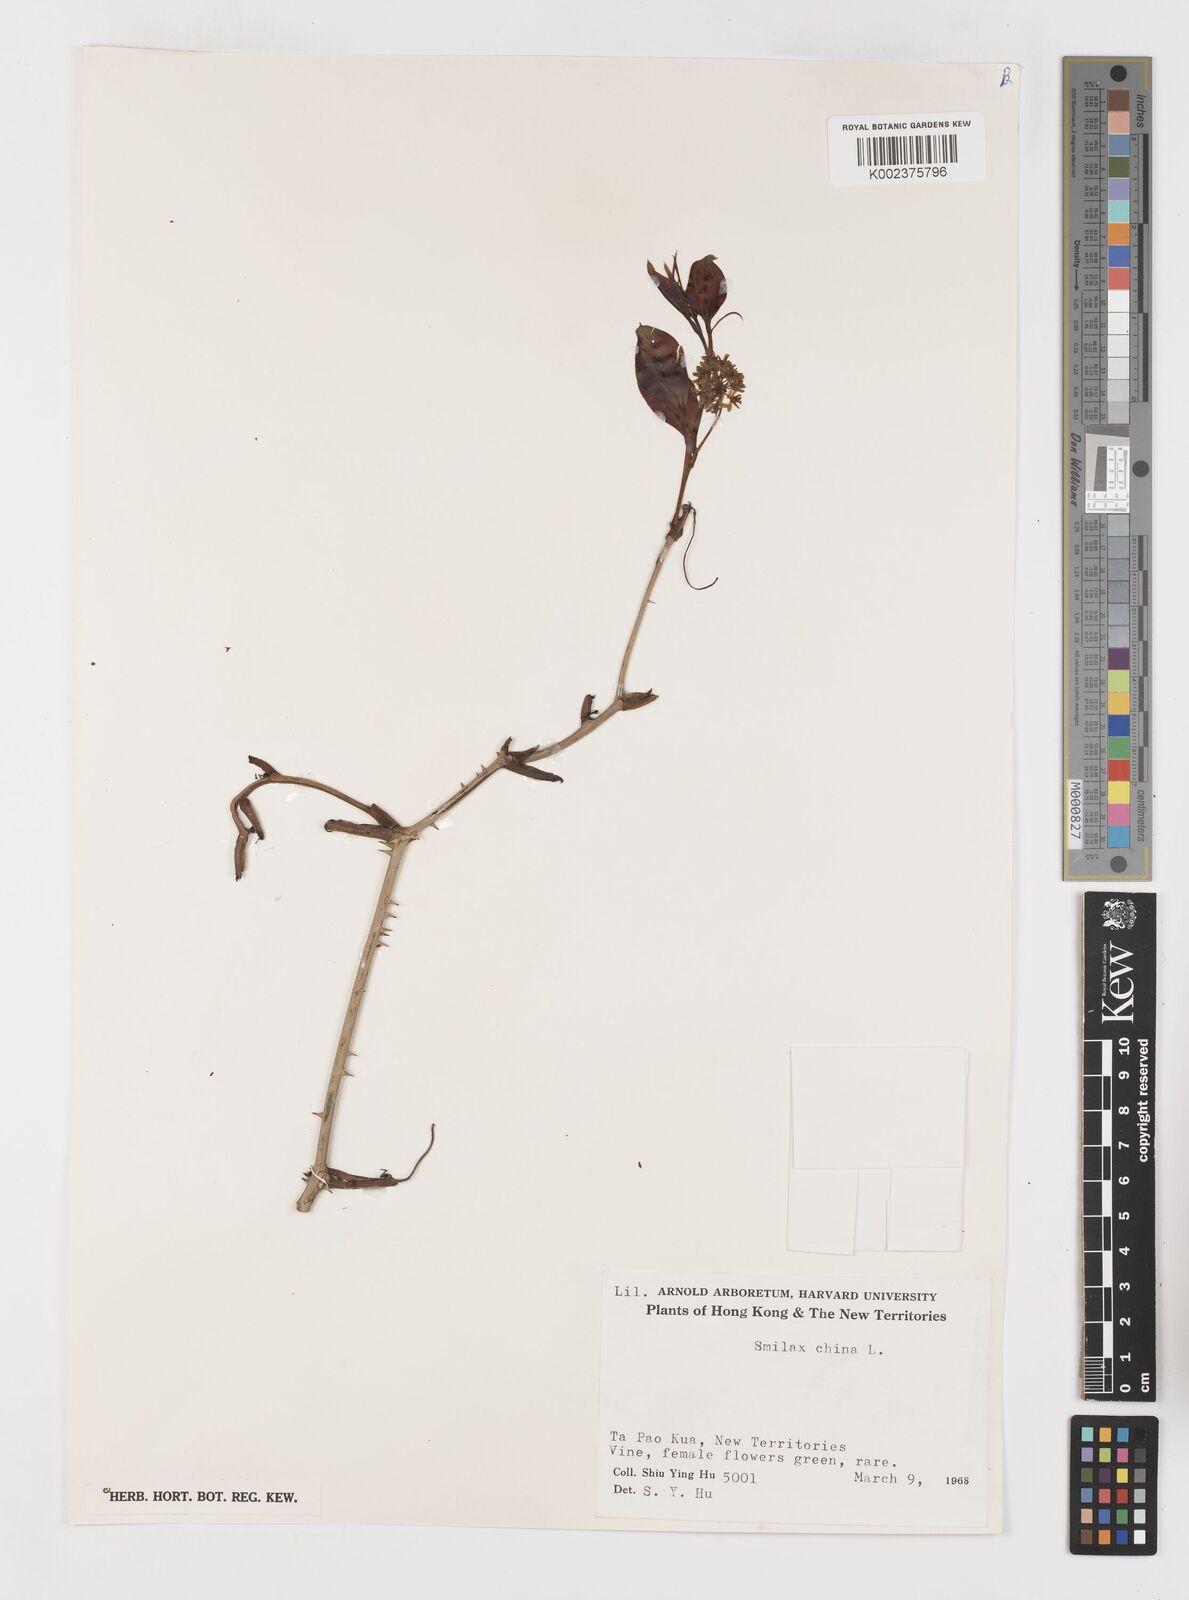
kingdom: Plantae
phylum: Tracheophyta
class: Liliopsida
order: Liliales
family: Smilacaceae
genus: Smilax
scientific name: Smilax china
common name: Chinaroot
